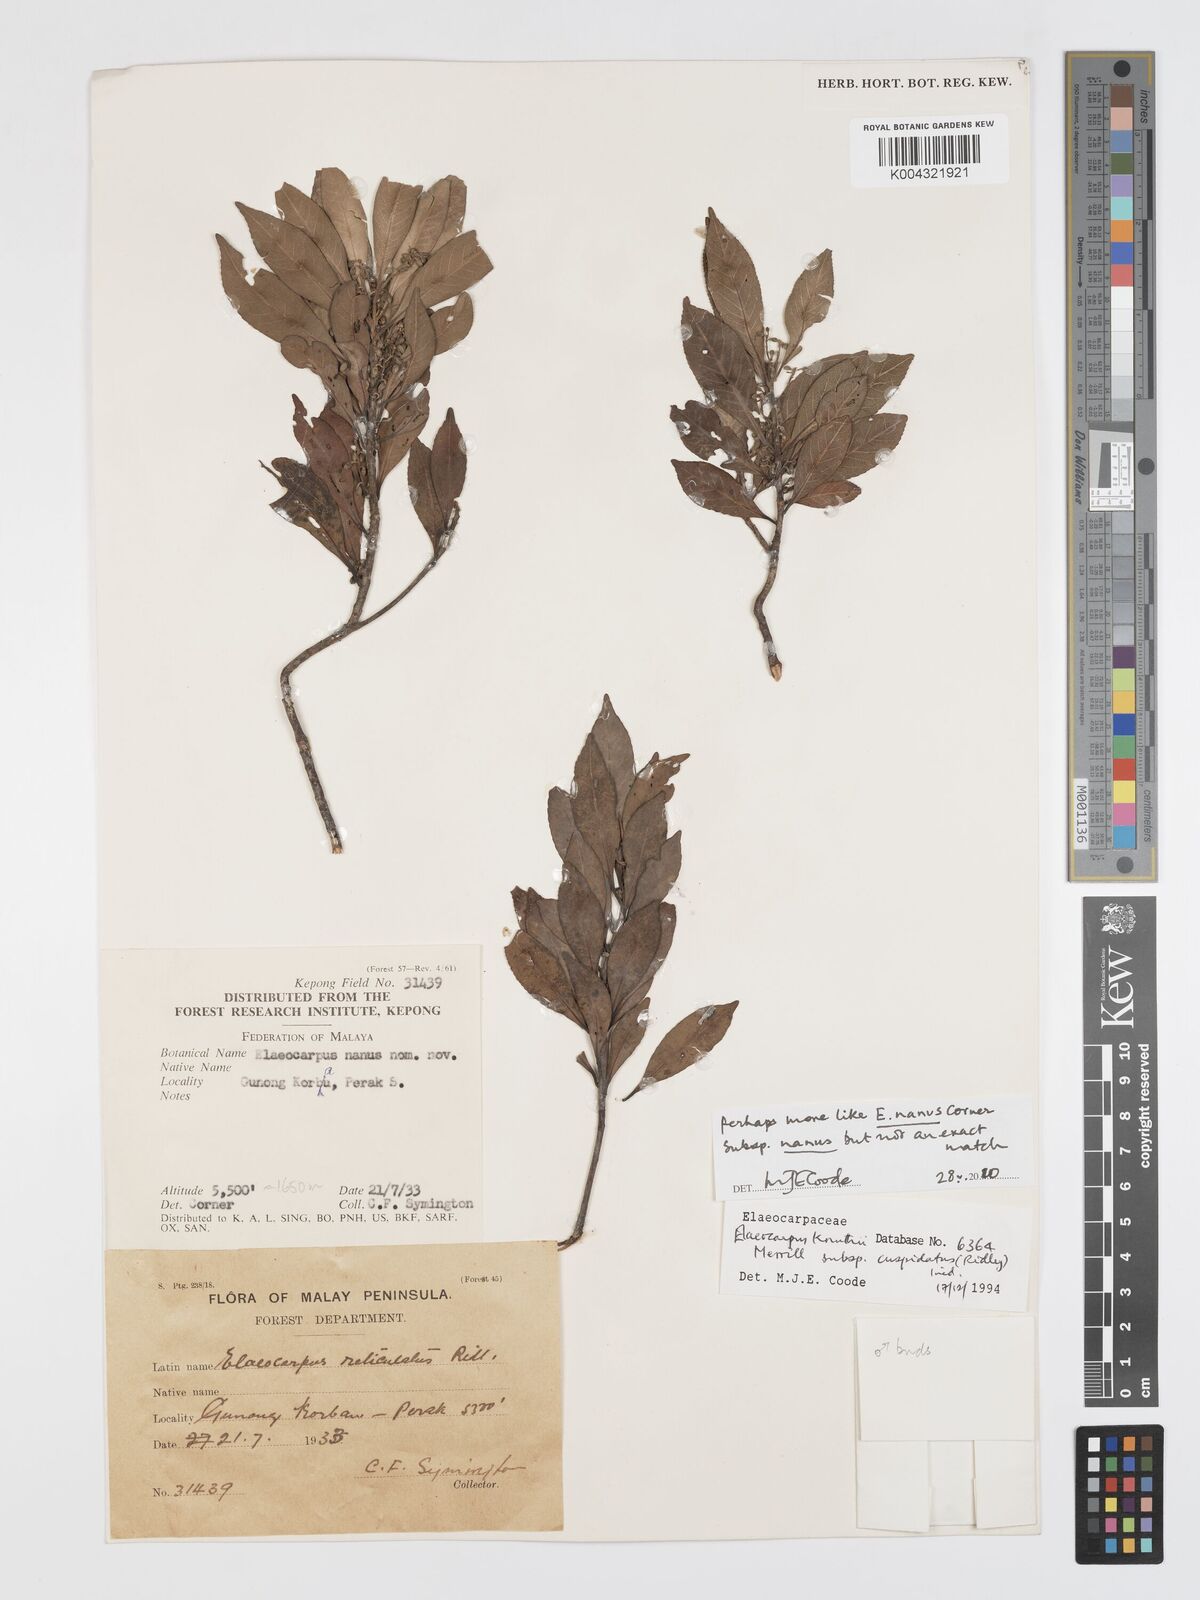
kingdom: Plantae
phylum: Tracheophyta
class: Magnoliopsida
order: Oxalidales
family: Elaeocarpaceae
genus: Elaeocarpus
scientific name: Elaeocarpus nanus
